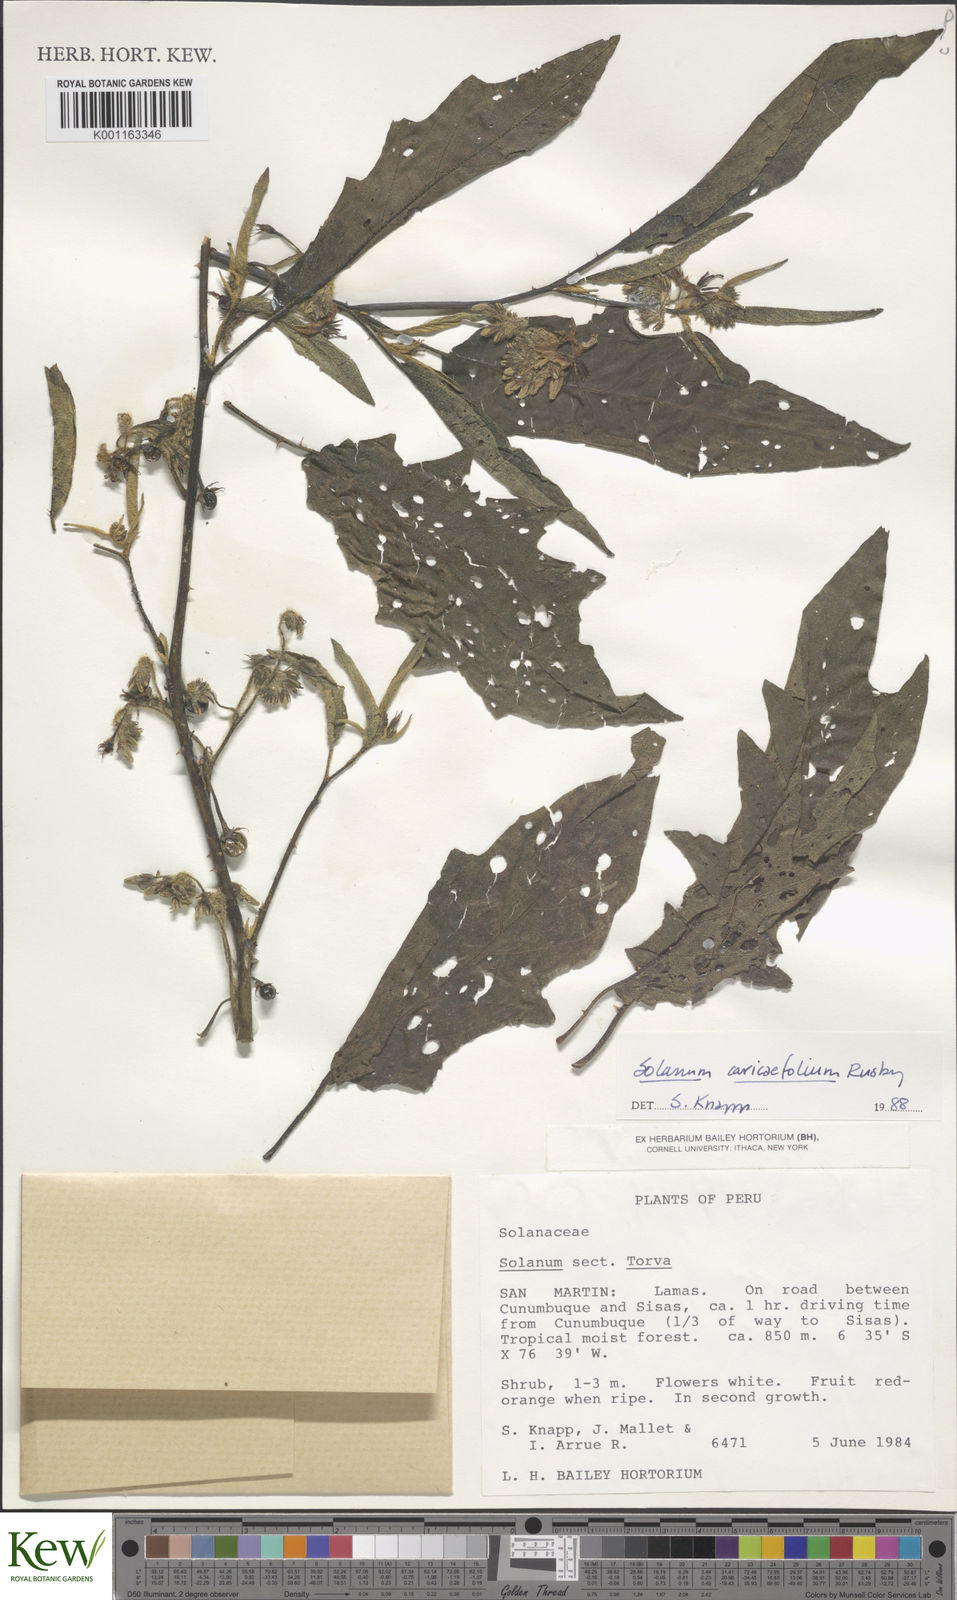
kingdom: Plantae
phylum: Tracheophyta
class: Magnoliopsida
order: Solanales
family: Solanaceae
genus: Solanum
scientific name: Solanum caricaefolium
